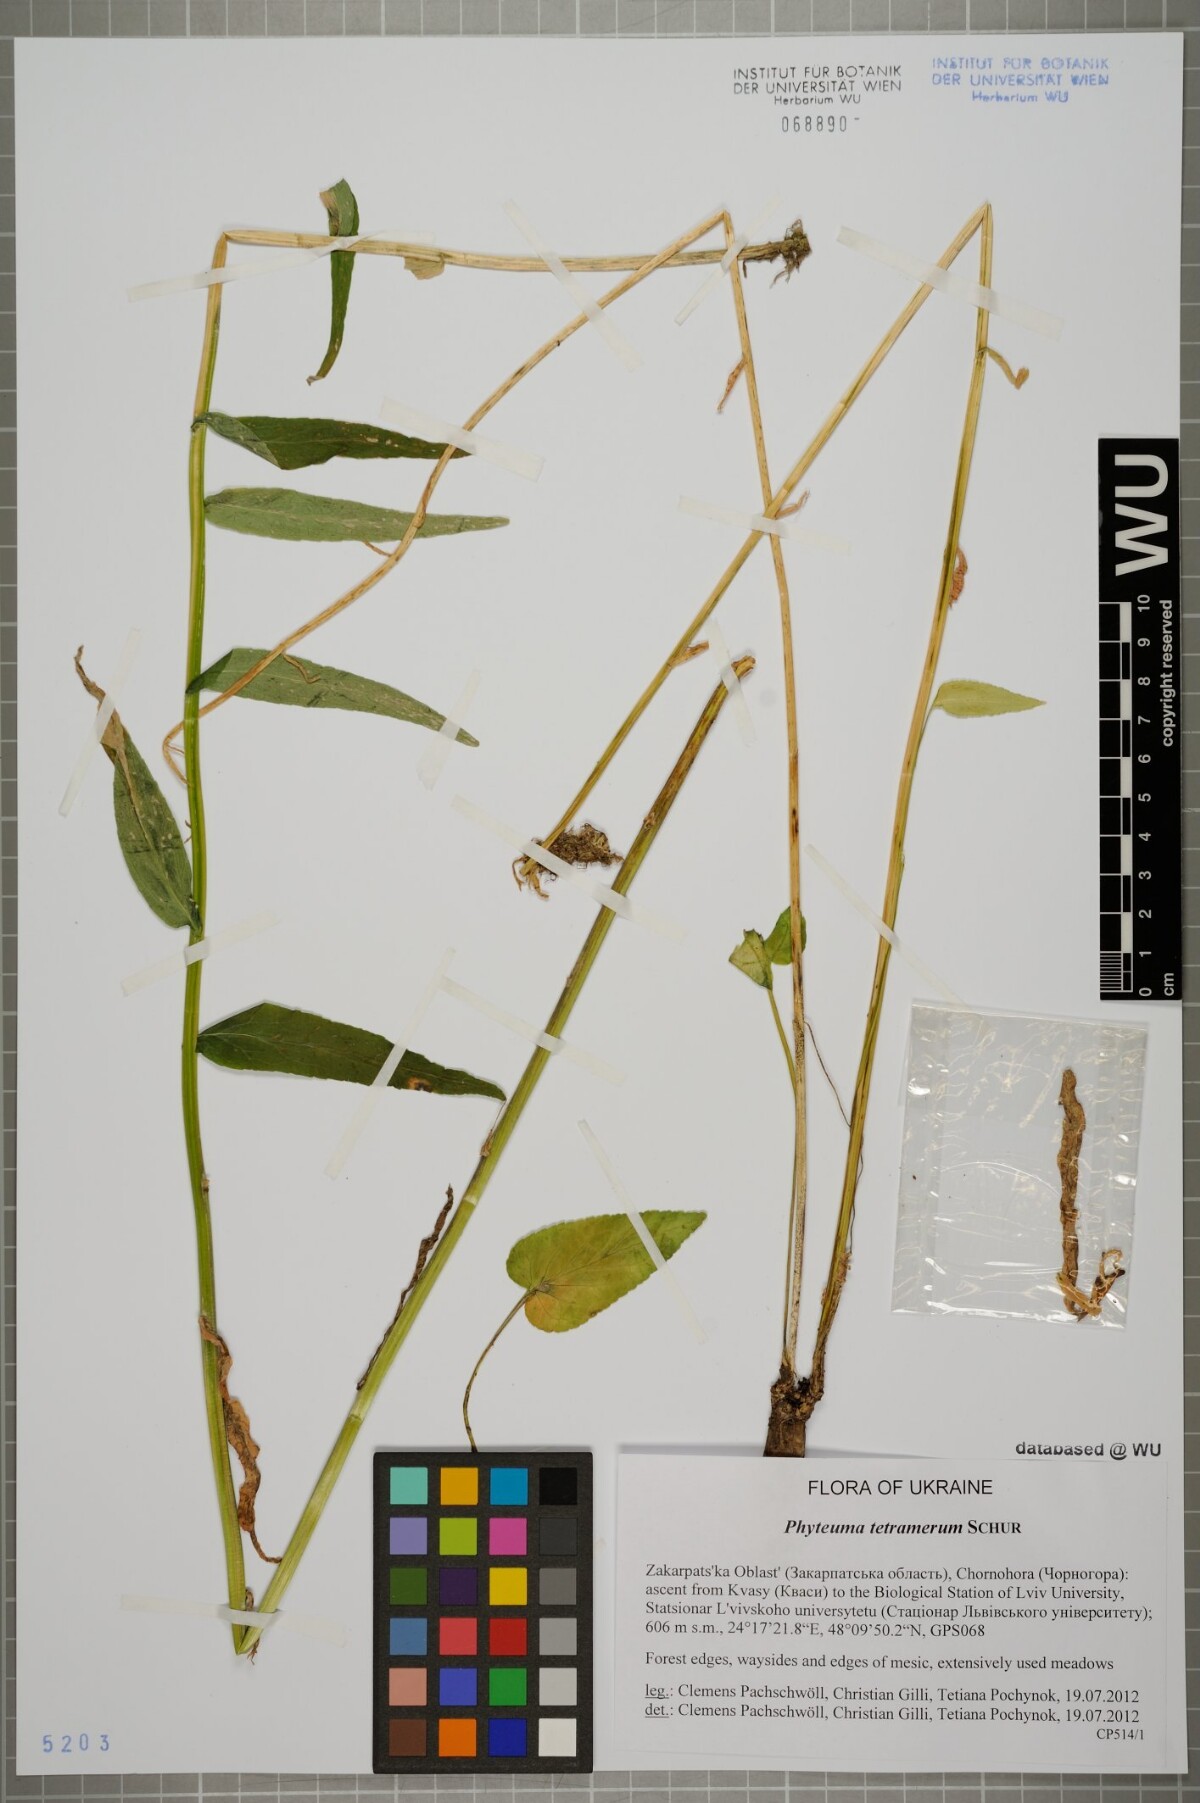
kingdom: Plantae
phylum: Tracheophyta
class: Magnoliopsida
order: Asterales
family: Campanulaceae
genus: Phyteuma
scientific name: Phyteuma tetramerum
